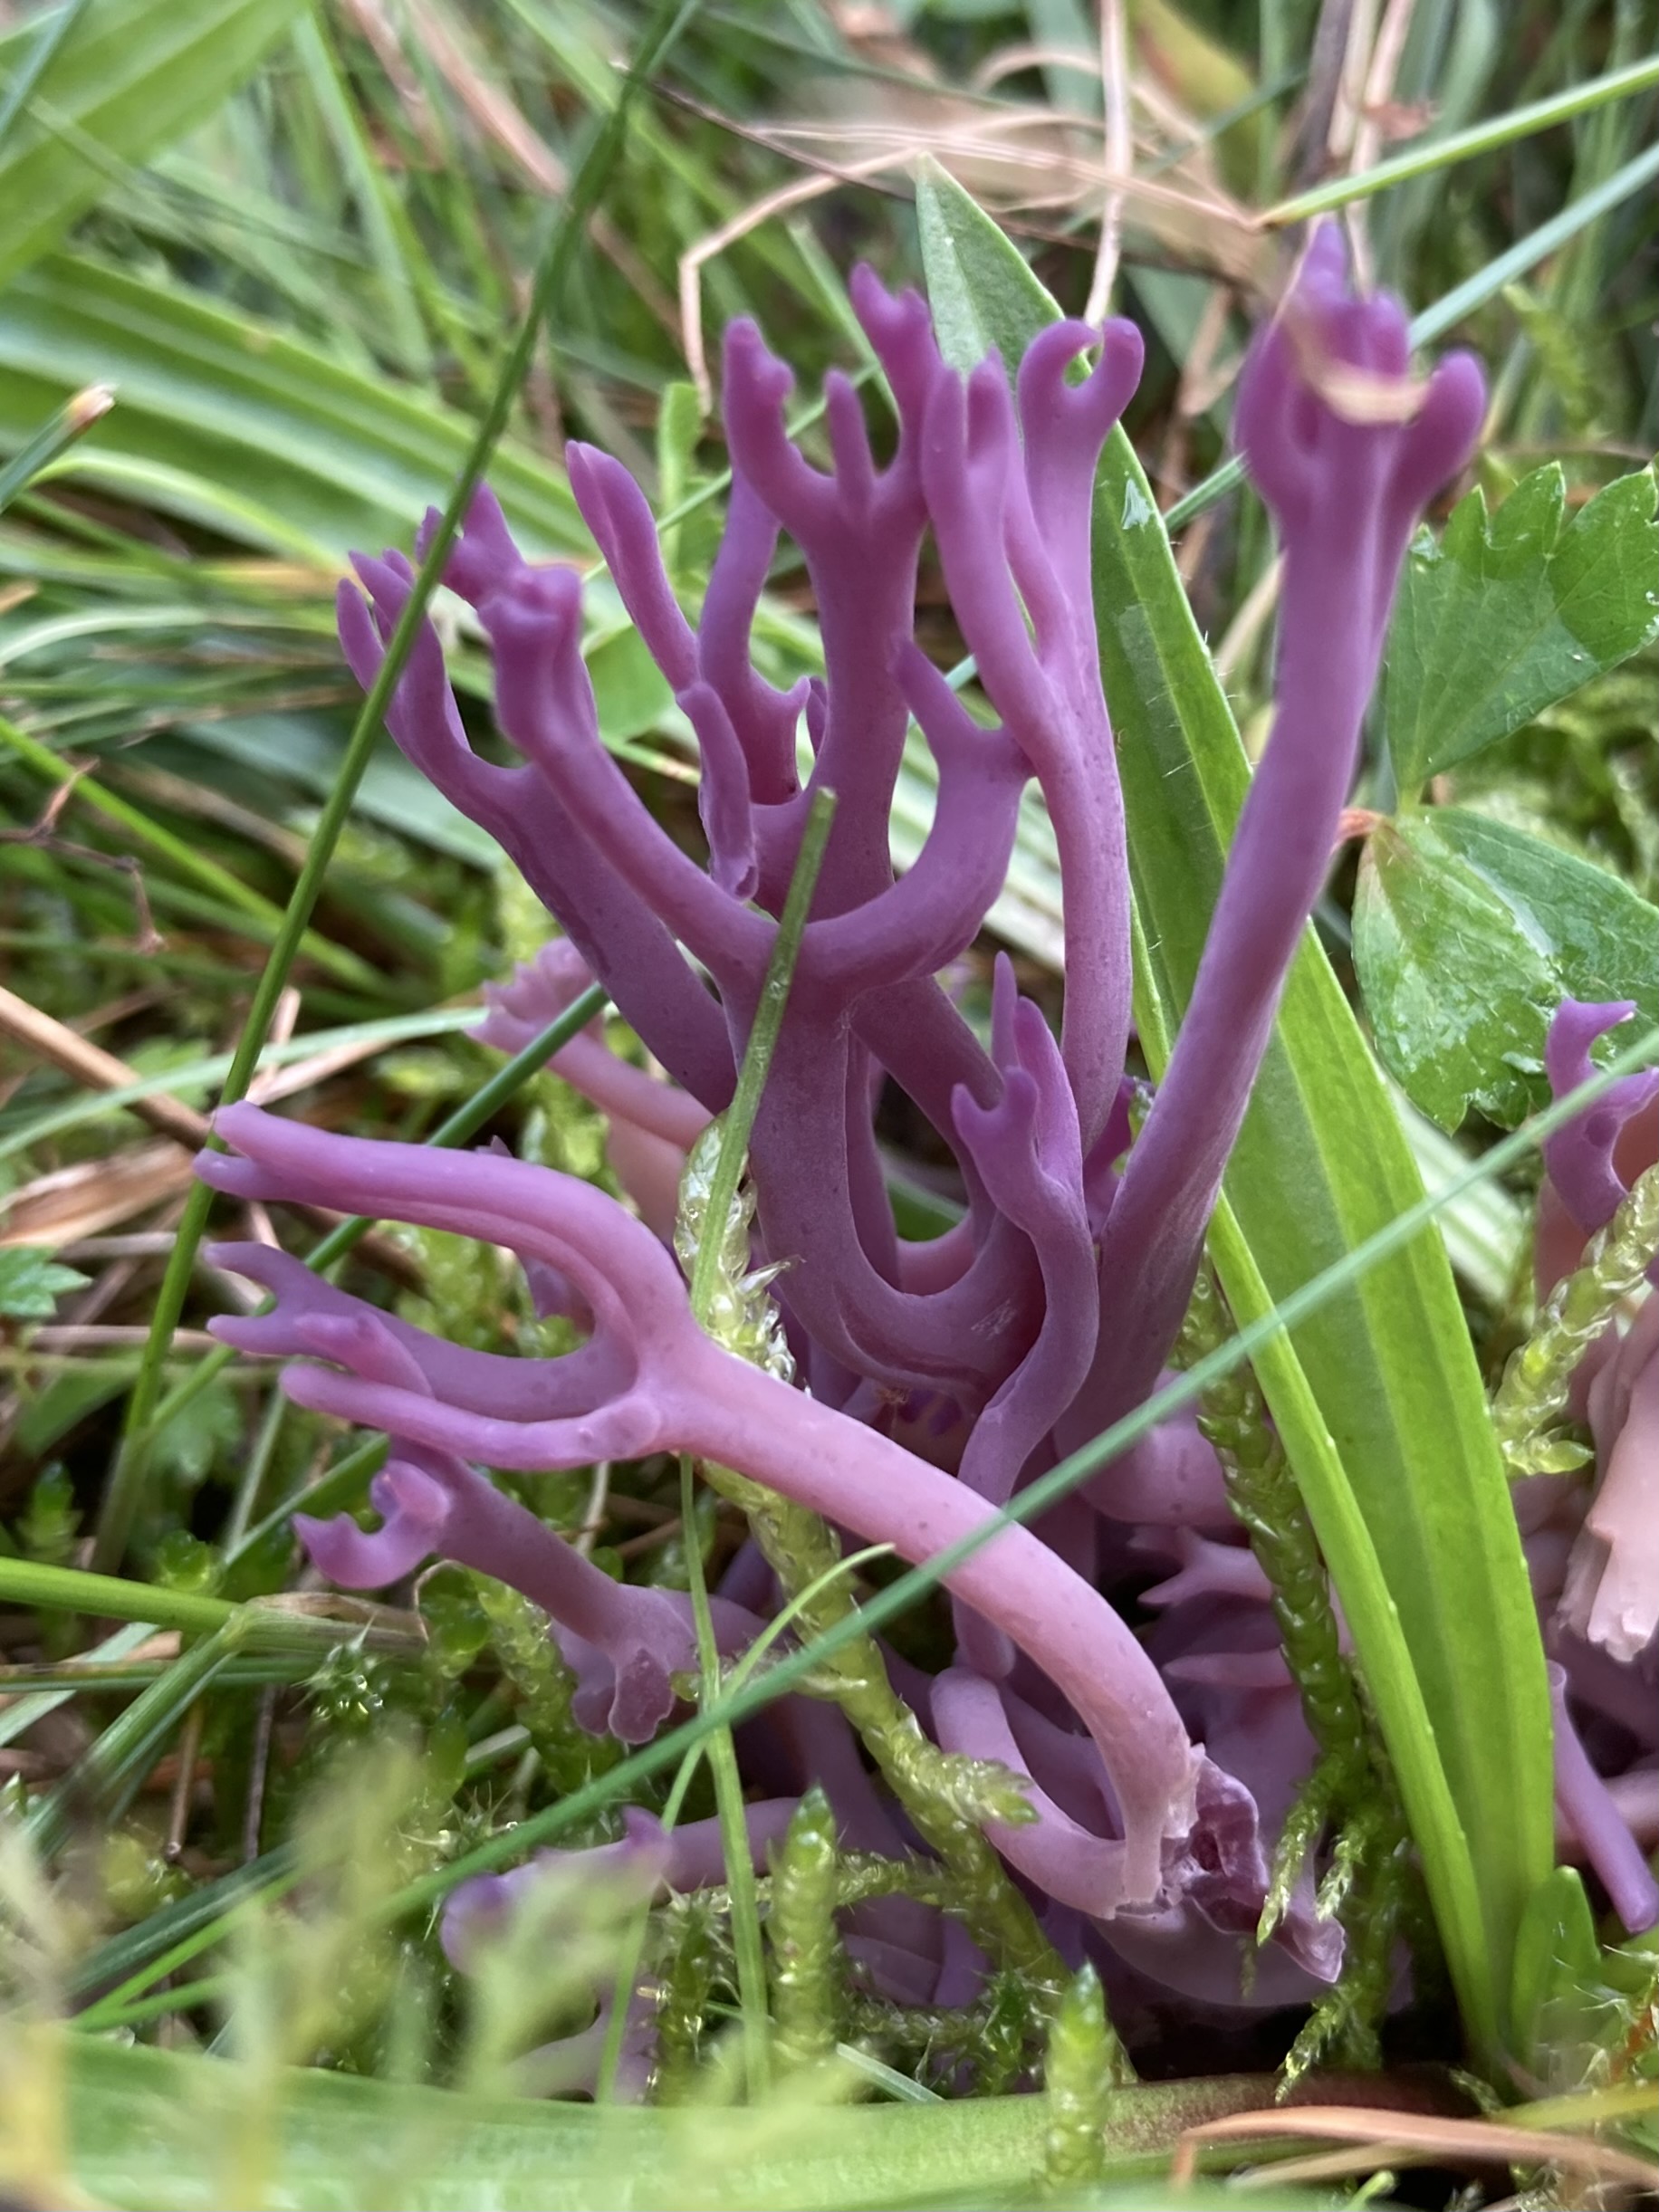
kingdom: Fungi
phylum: Basidiomycota
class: Agaricomycetes
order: Agaricales
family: Clavariaceae
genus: Clavaria
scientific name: Clavaria zollingeri
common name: purpur-køllesvamp
